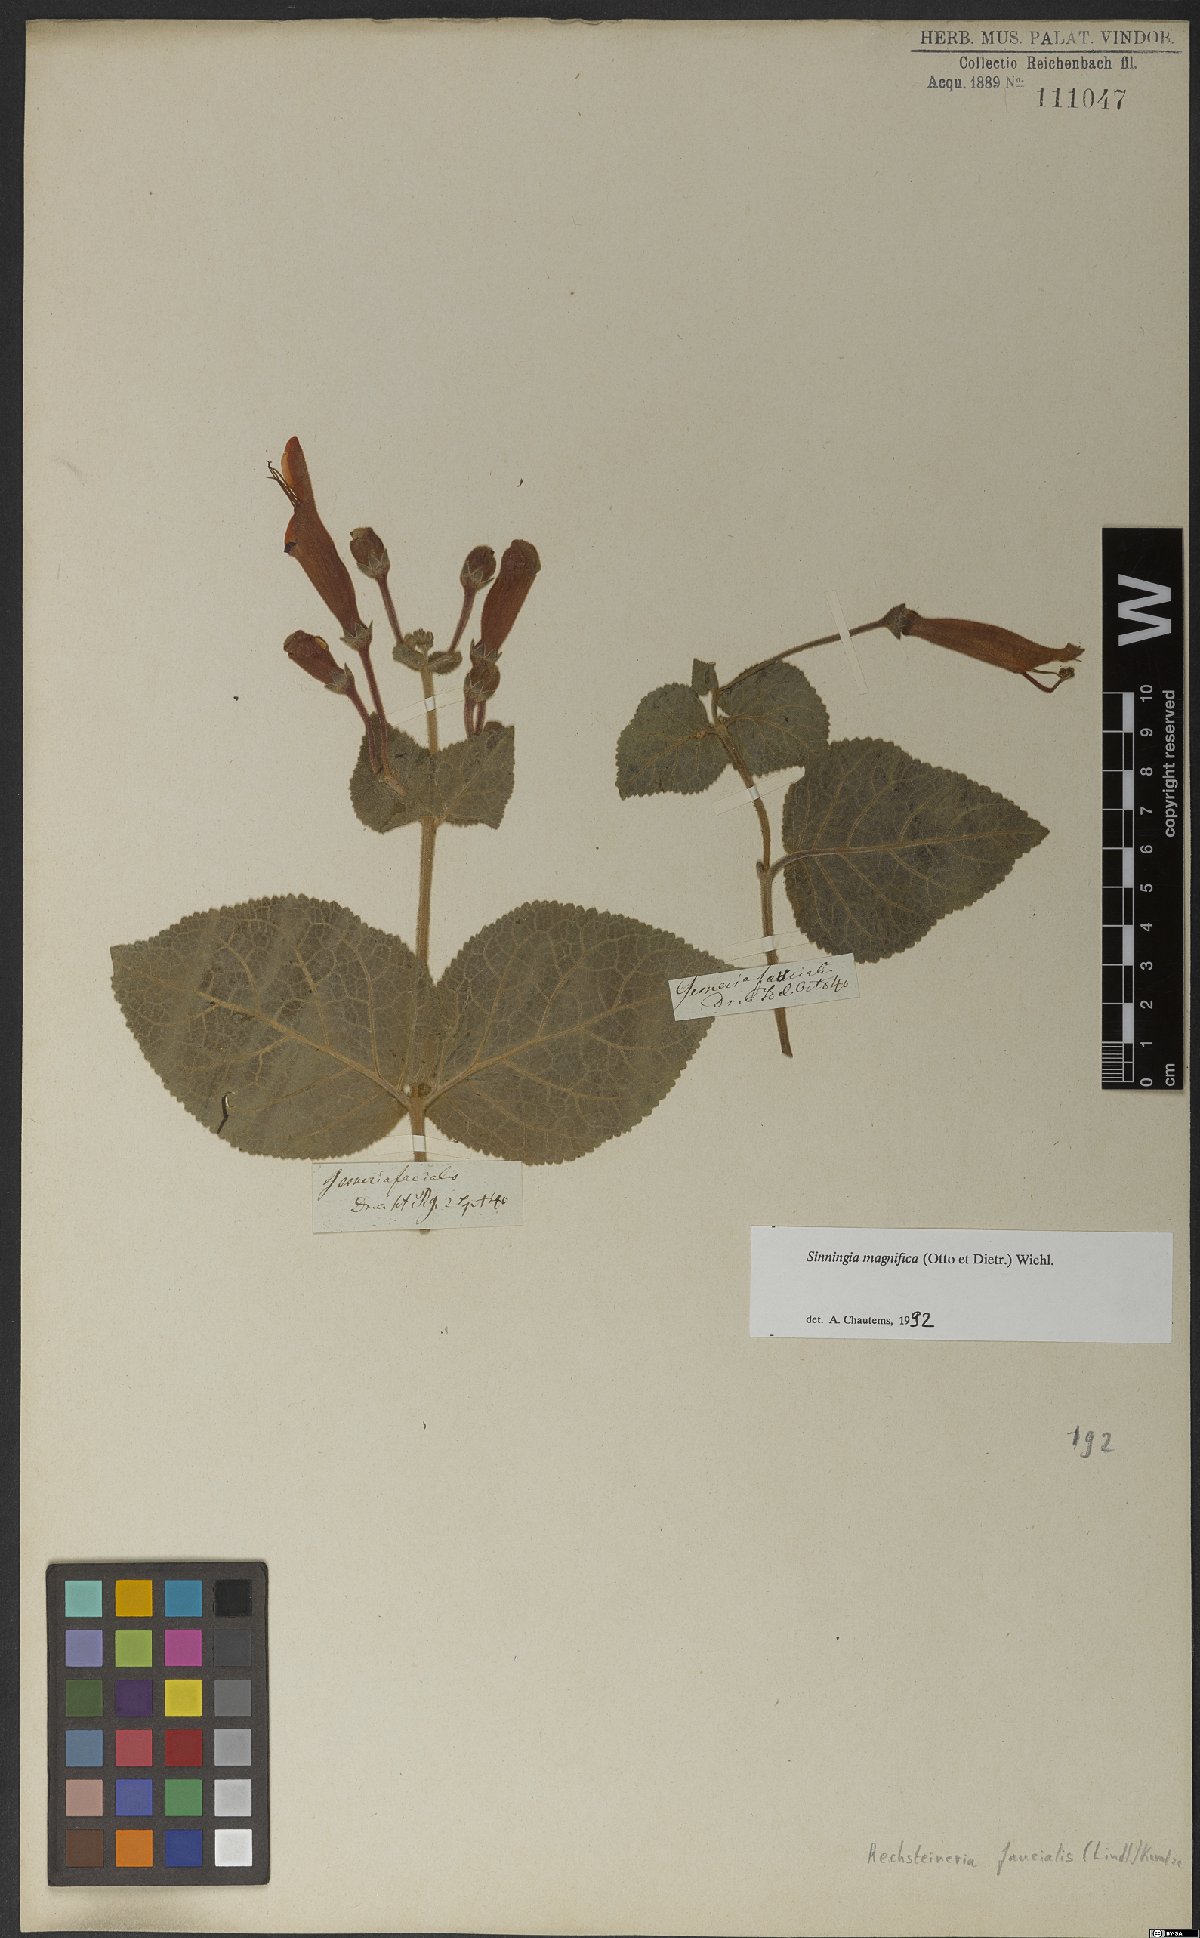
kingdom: Plantae
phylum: Tracheophyta
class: Magnoliopsida
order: Lamiales
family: Gesneriaceae
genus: Sinningia
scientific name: Sinningia magnifica
